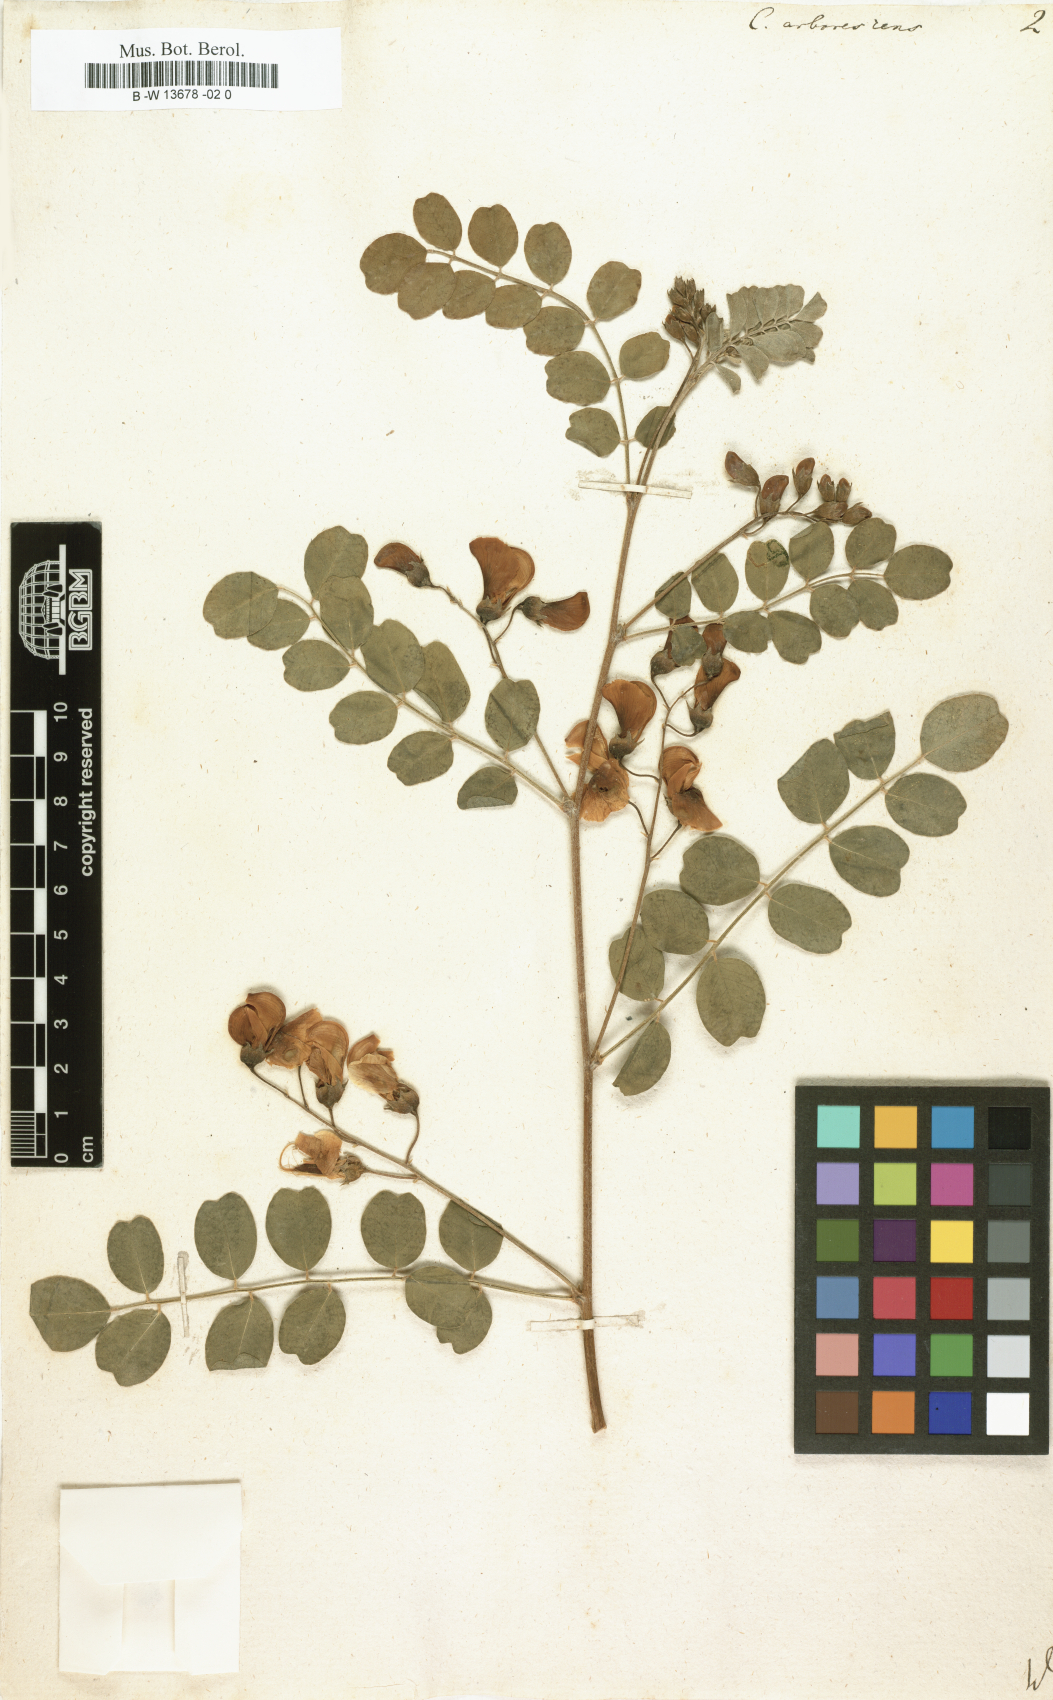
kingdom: Plantae
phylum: Tracheophyta
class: Magnoliopsida
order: Fabales
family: Fabaceae
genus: Colutea
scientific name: Colutea arborescens
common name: Bladder-senna
